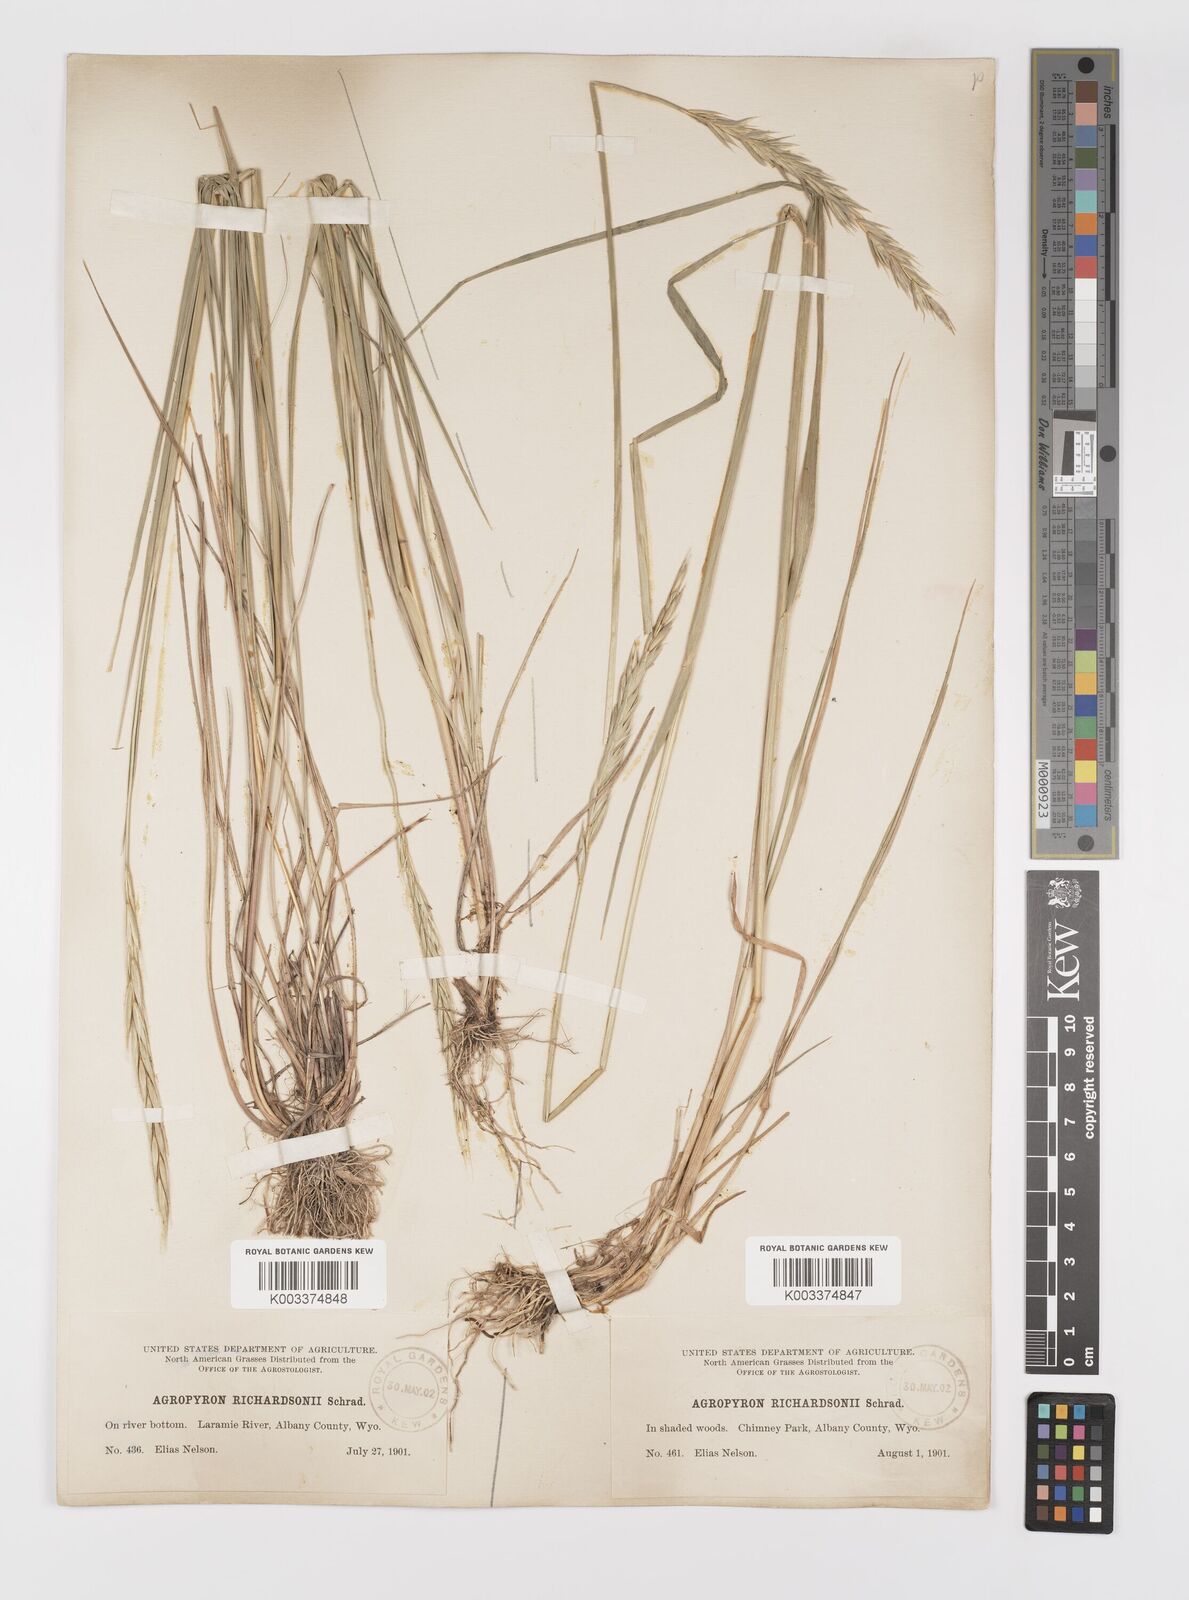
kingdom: Plantae
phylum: Tracheophyta
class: Liliopsida
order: Poales
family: Poaceae
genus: Elymus
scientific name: Elymus violaceus
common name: Arctic wheatgrass
